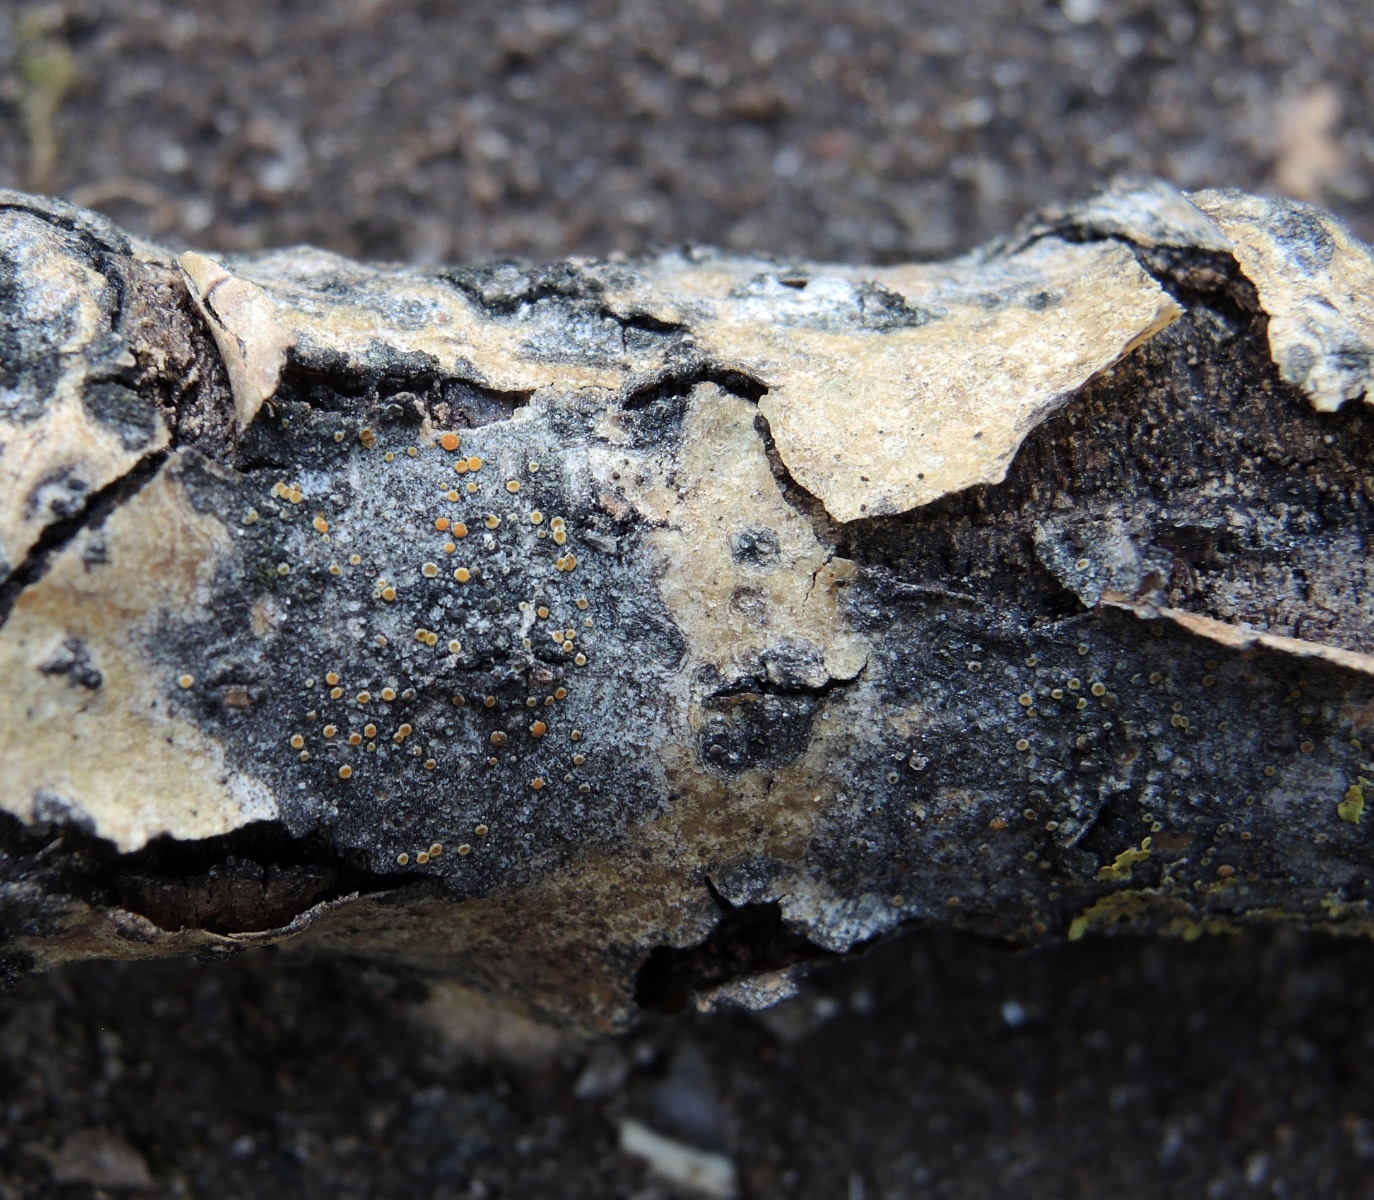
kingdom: Fungi
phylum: Ascomycota
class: Lecanoromycetes
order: Teloschistales
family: Teloschistaceae
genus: Caloplaca
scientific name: Caloplaca cerina
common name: voksgul orangelav
